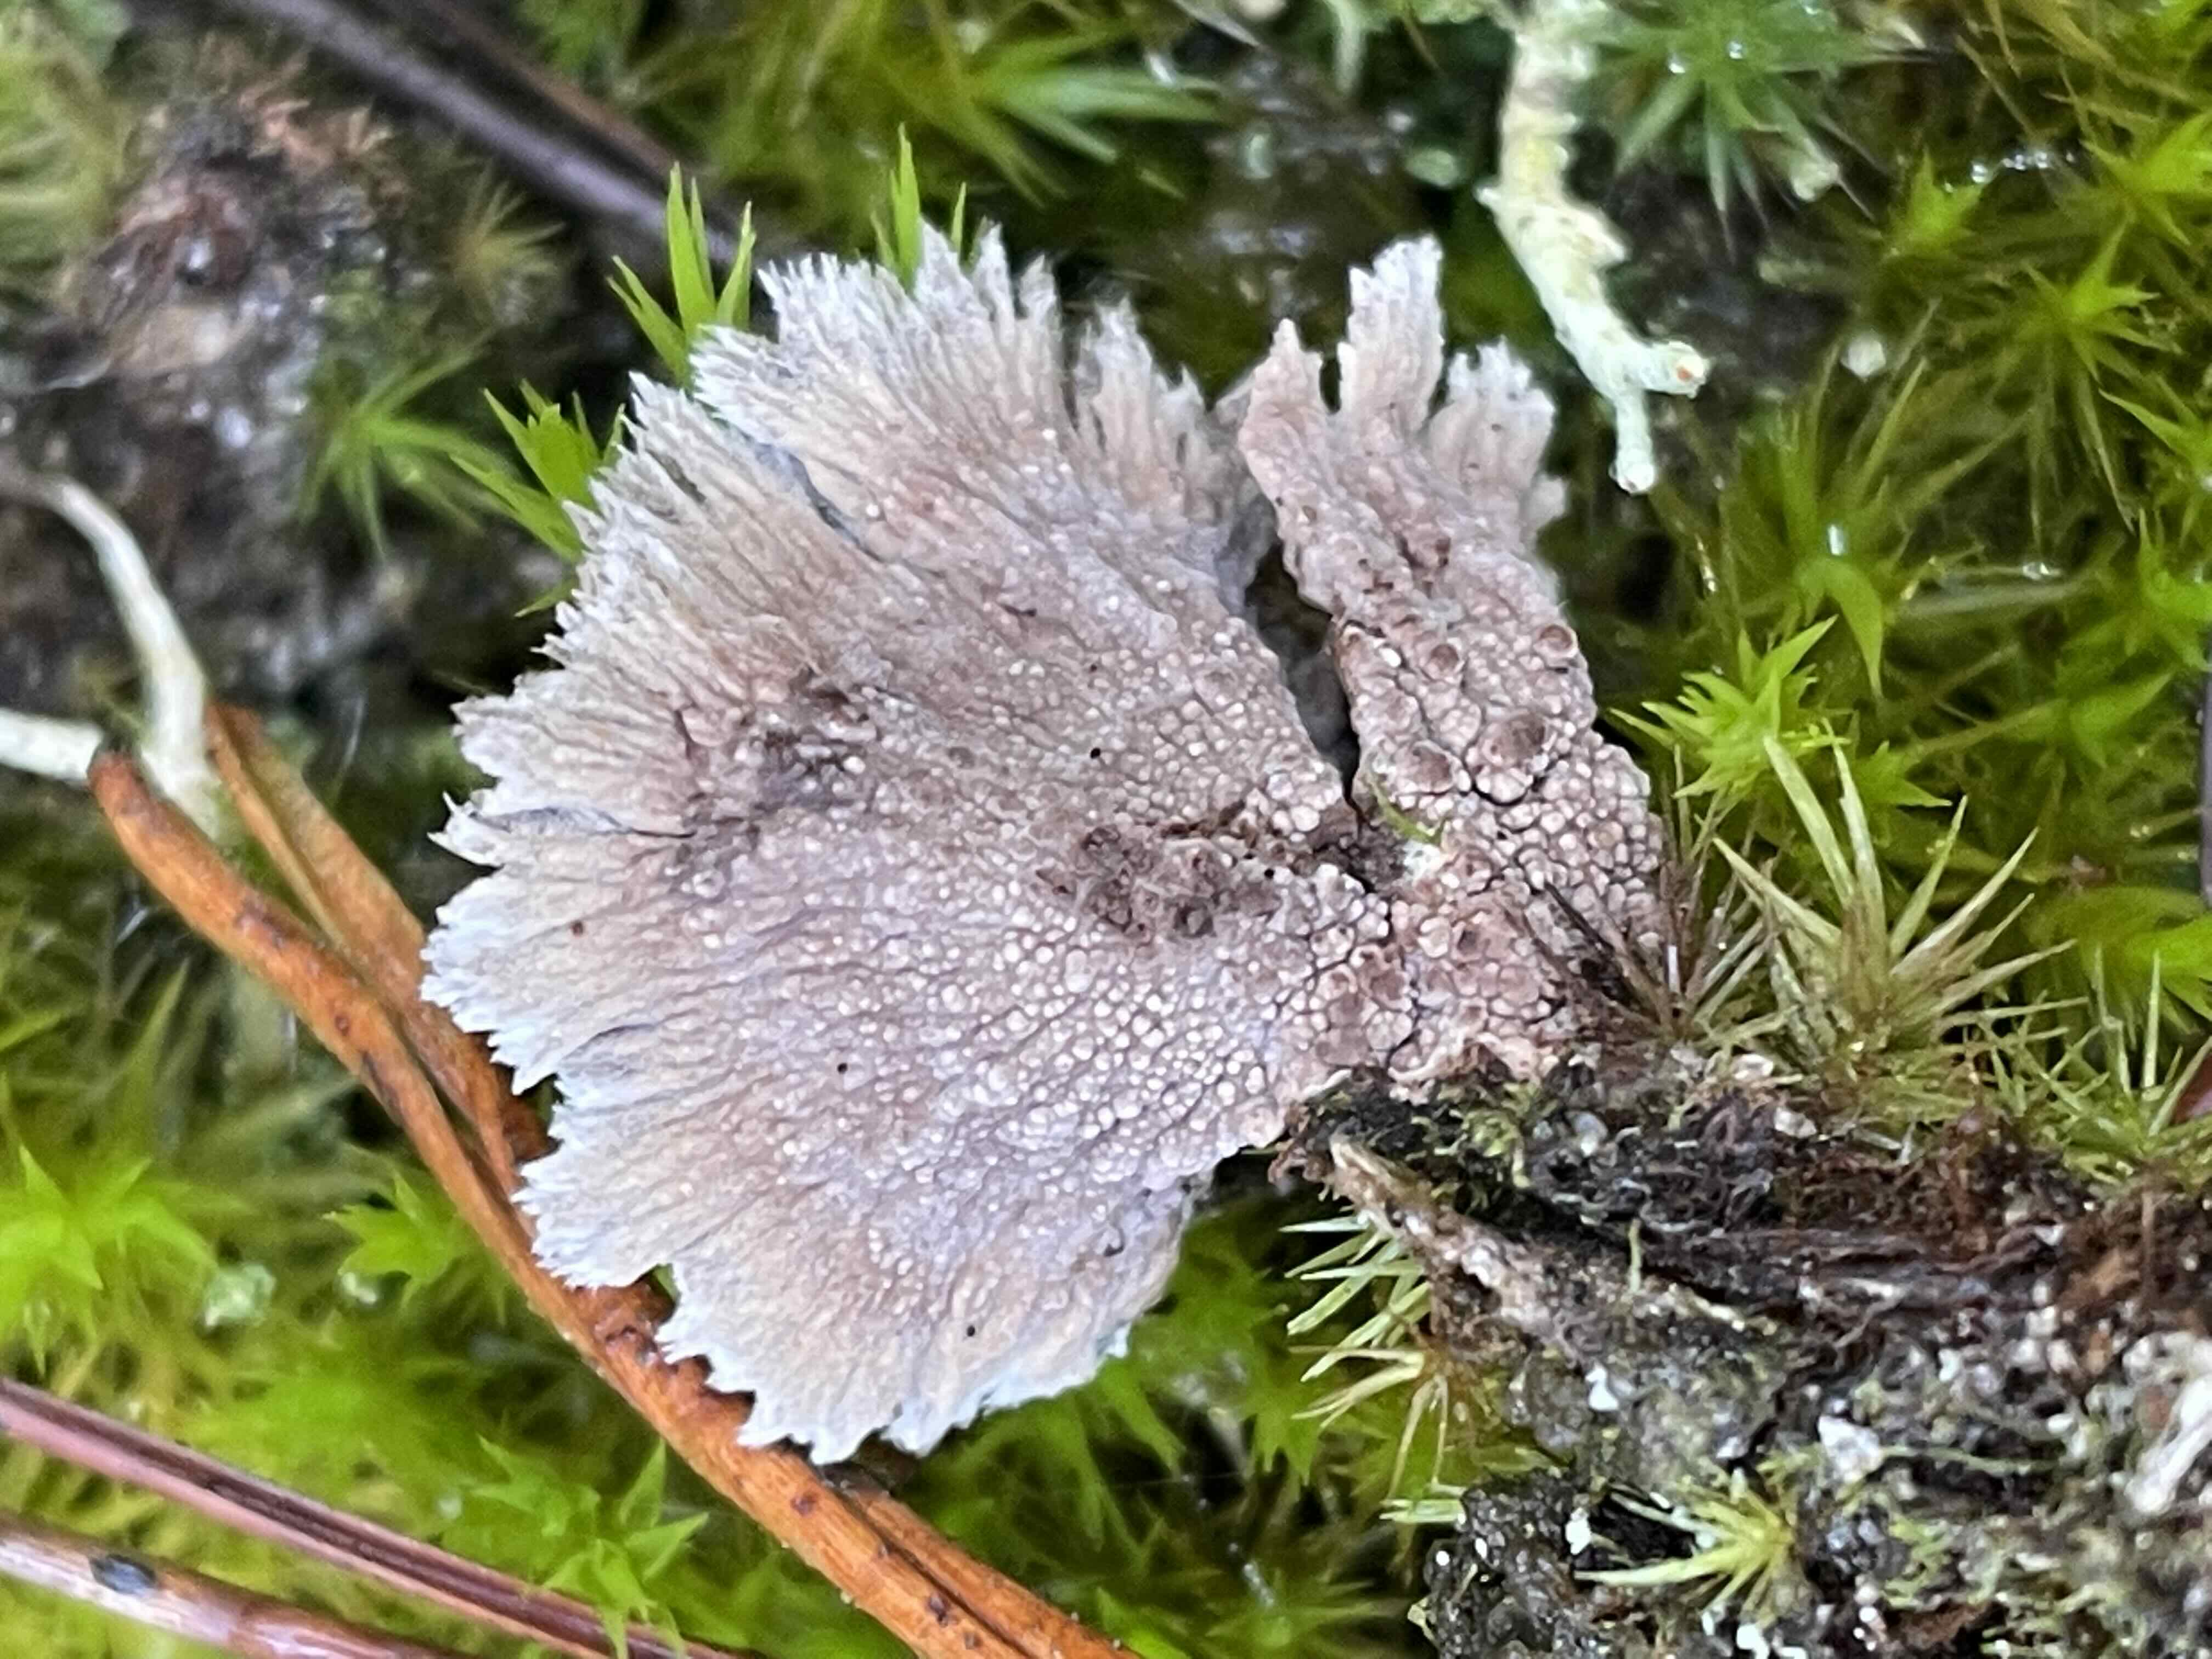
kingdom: Fungi
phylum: Basidiomycota
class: Agaricomycetes
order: Thelephorales
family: Thelephoraceae
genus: Thelephora
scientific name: Thelephora terrestris
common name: fliget frynsesvamp
